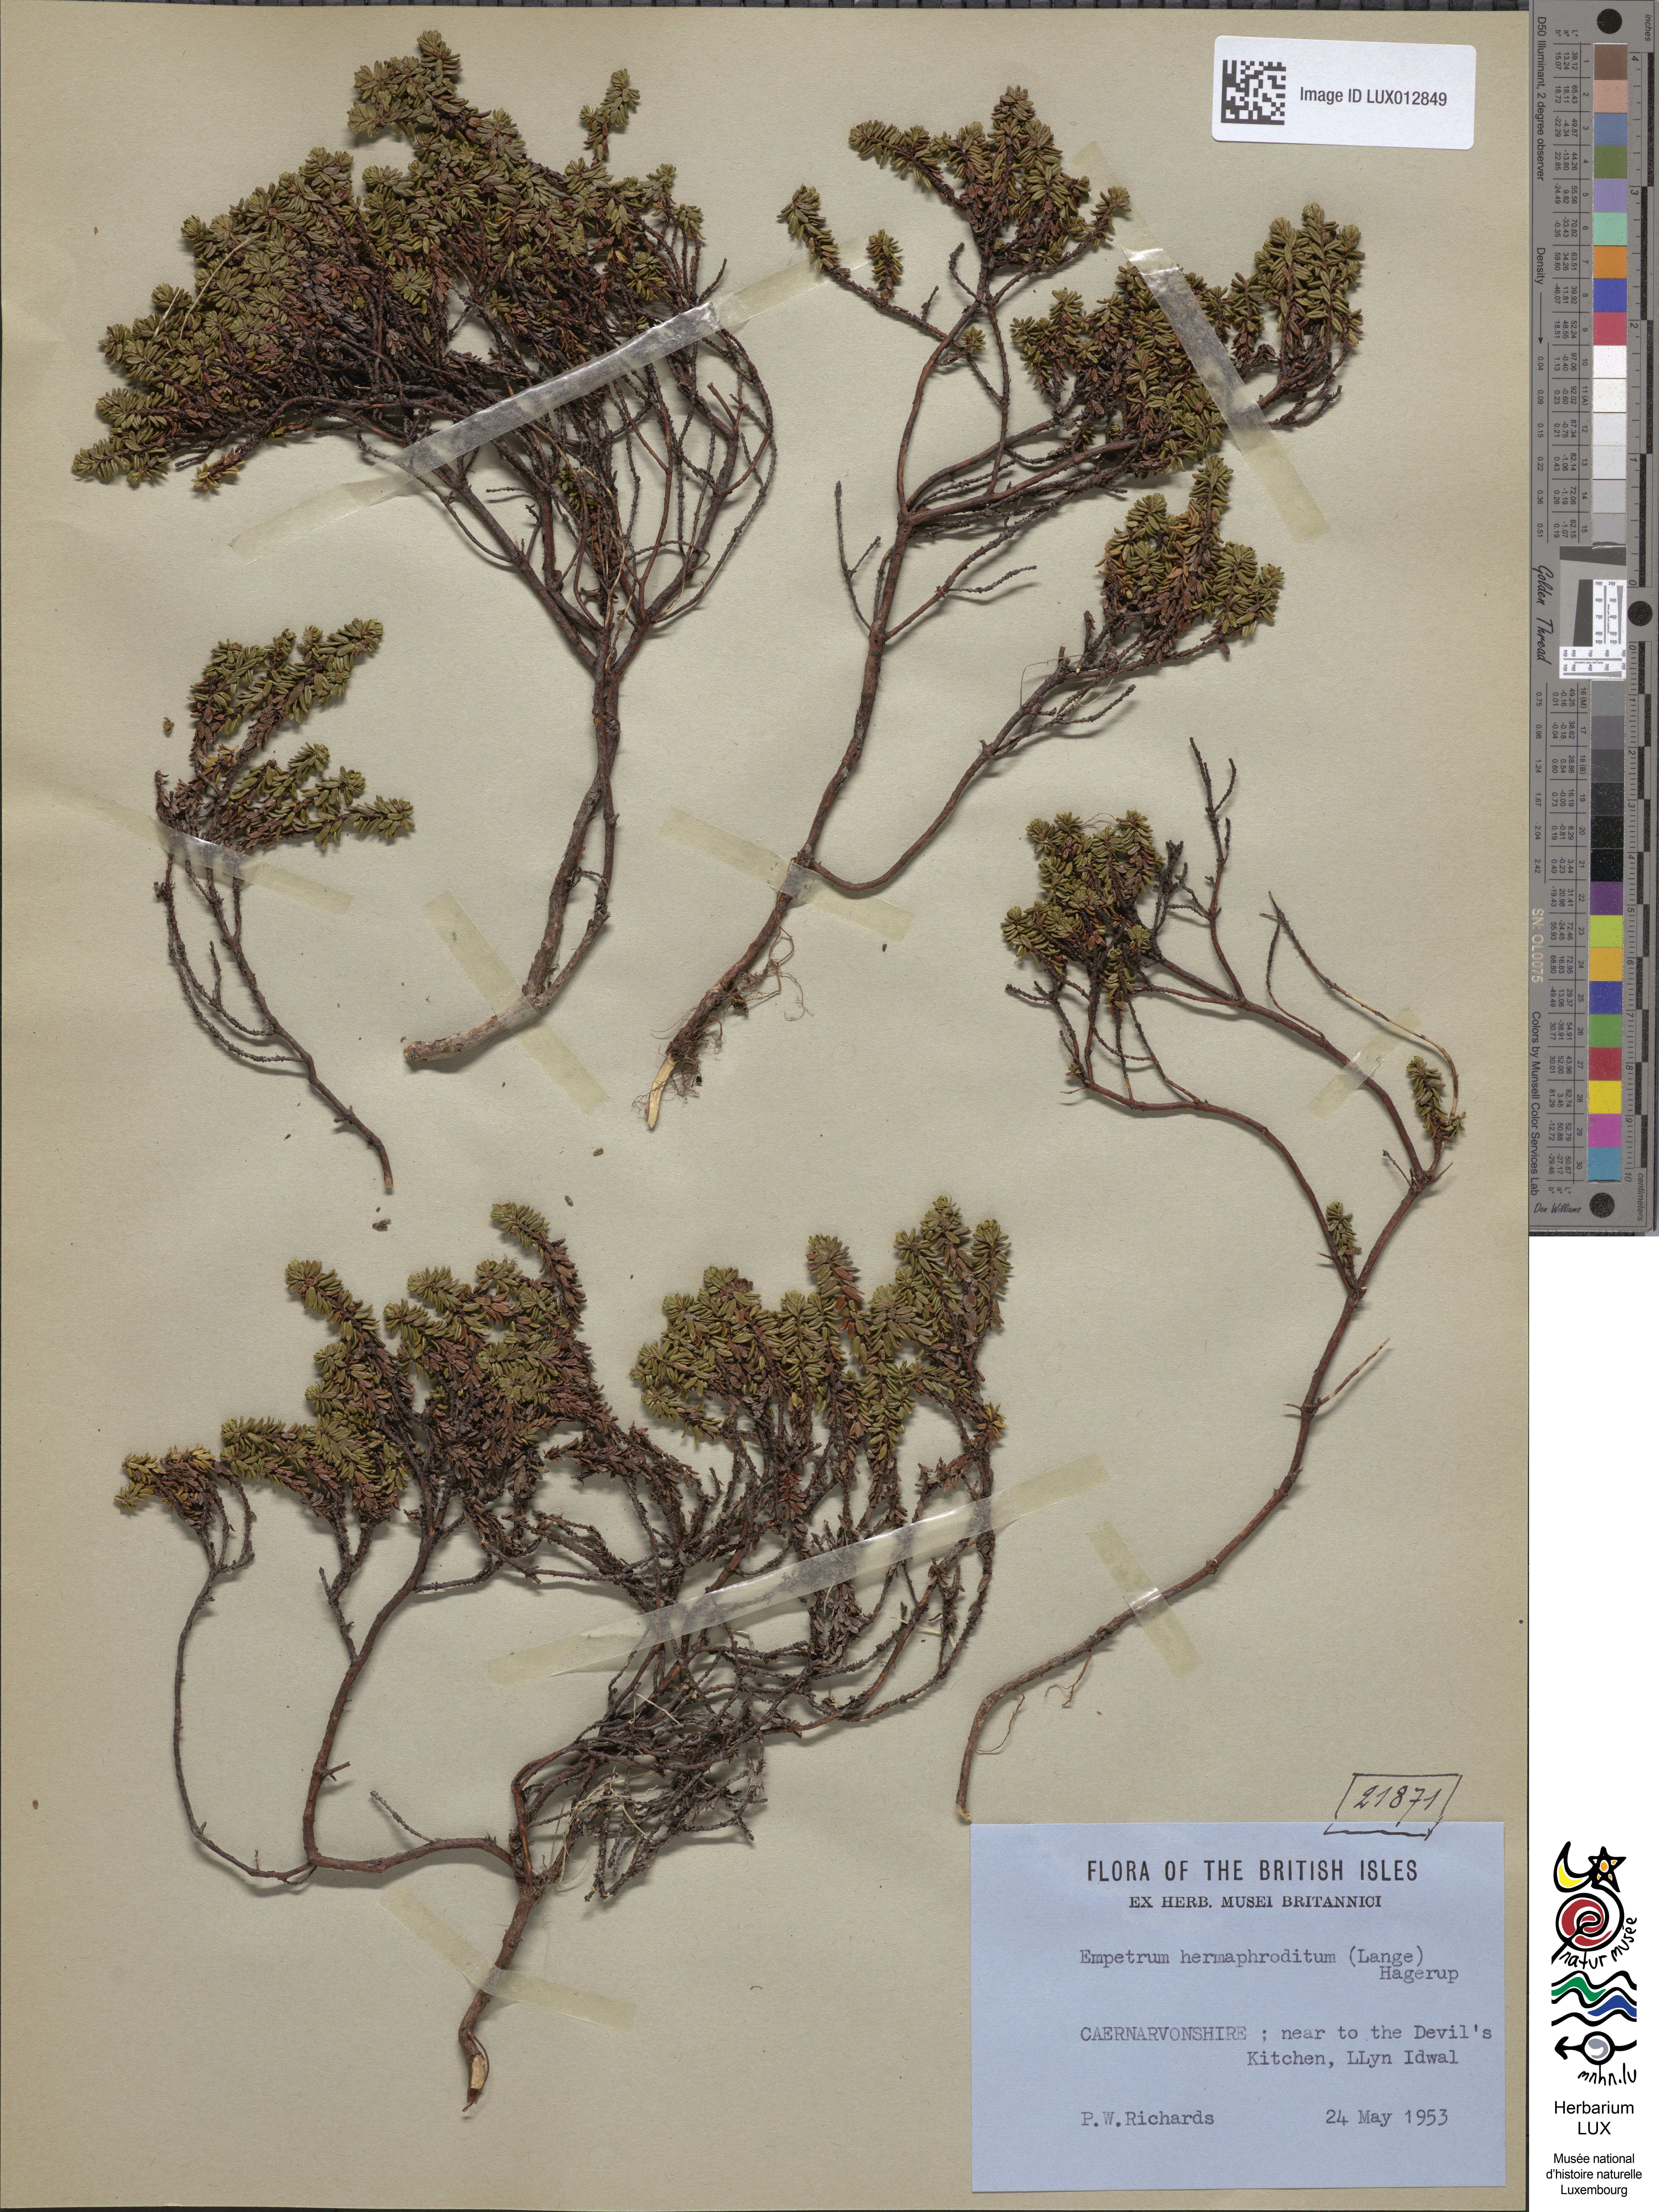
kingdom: Plantae
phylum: Tracheophyta
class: Magnoliopsida
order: Ericales
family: Ericaceae
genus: Empetrum
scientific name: Empetrum hermaphroditum
